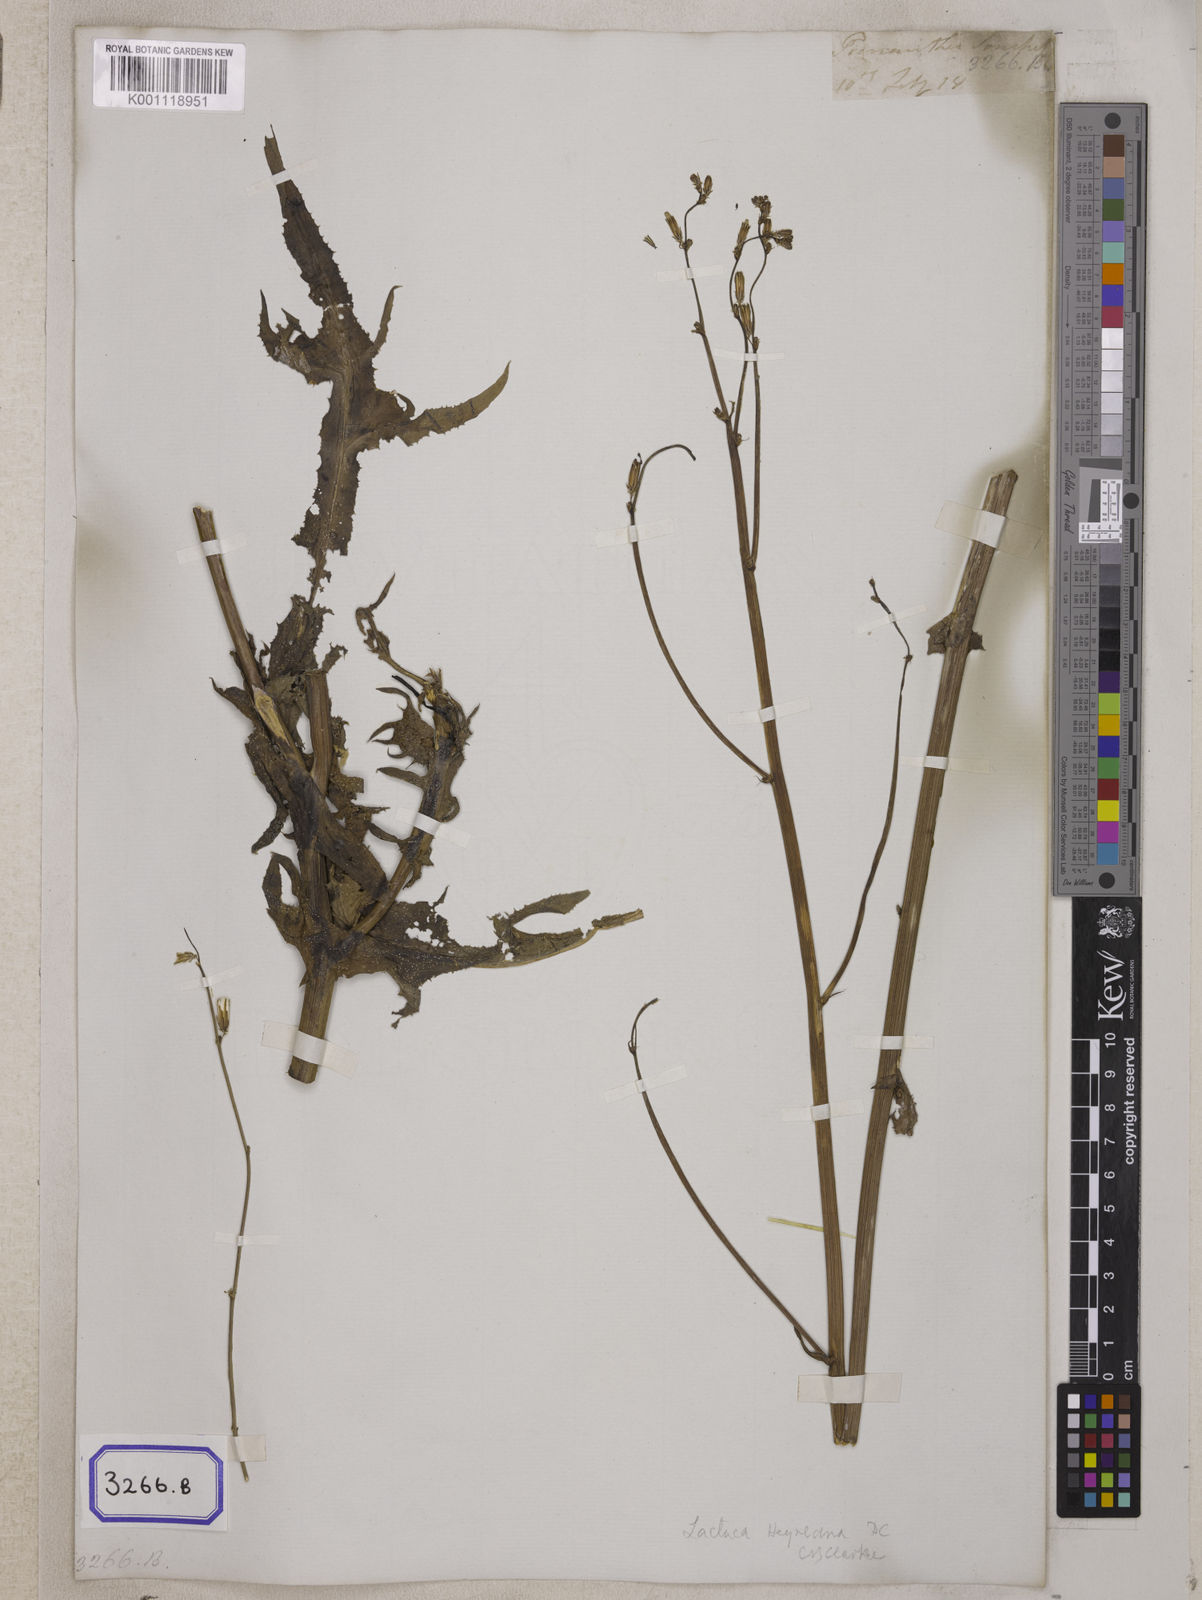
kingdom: Plantae
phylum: Tracheophyta
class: Magnoliopsida
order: Asterales
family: Asteraceae
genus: Prenanthes
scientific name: Prenanthes
